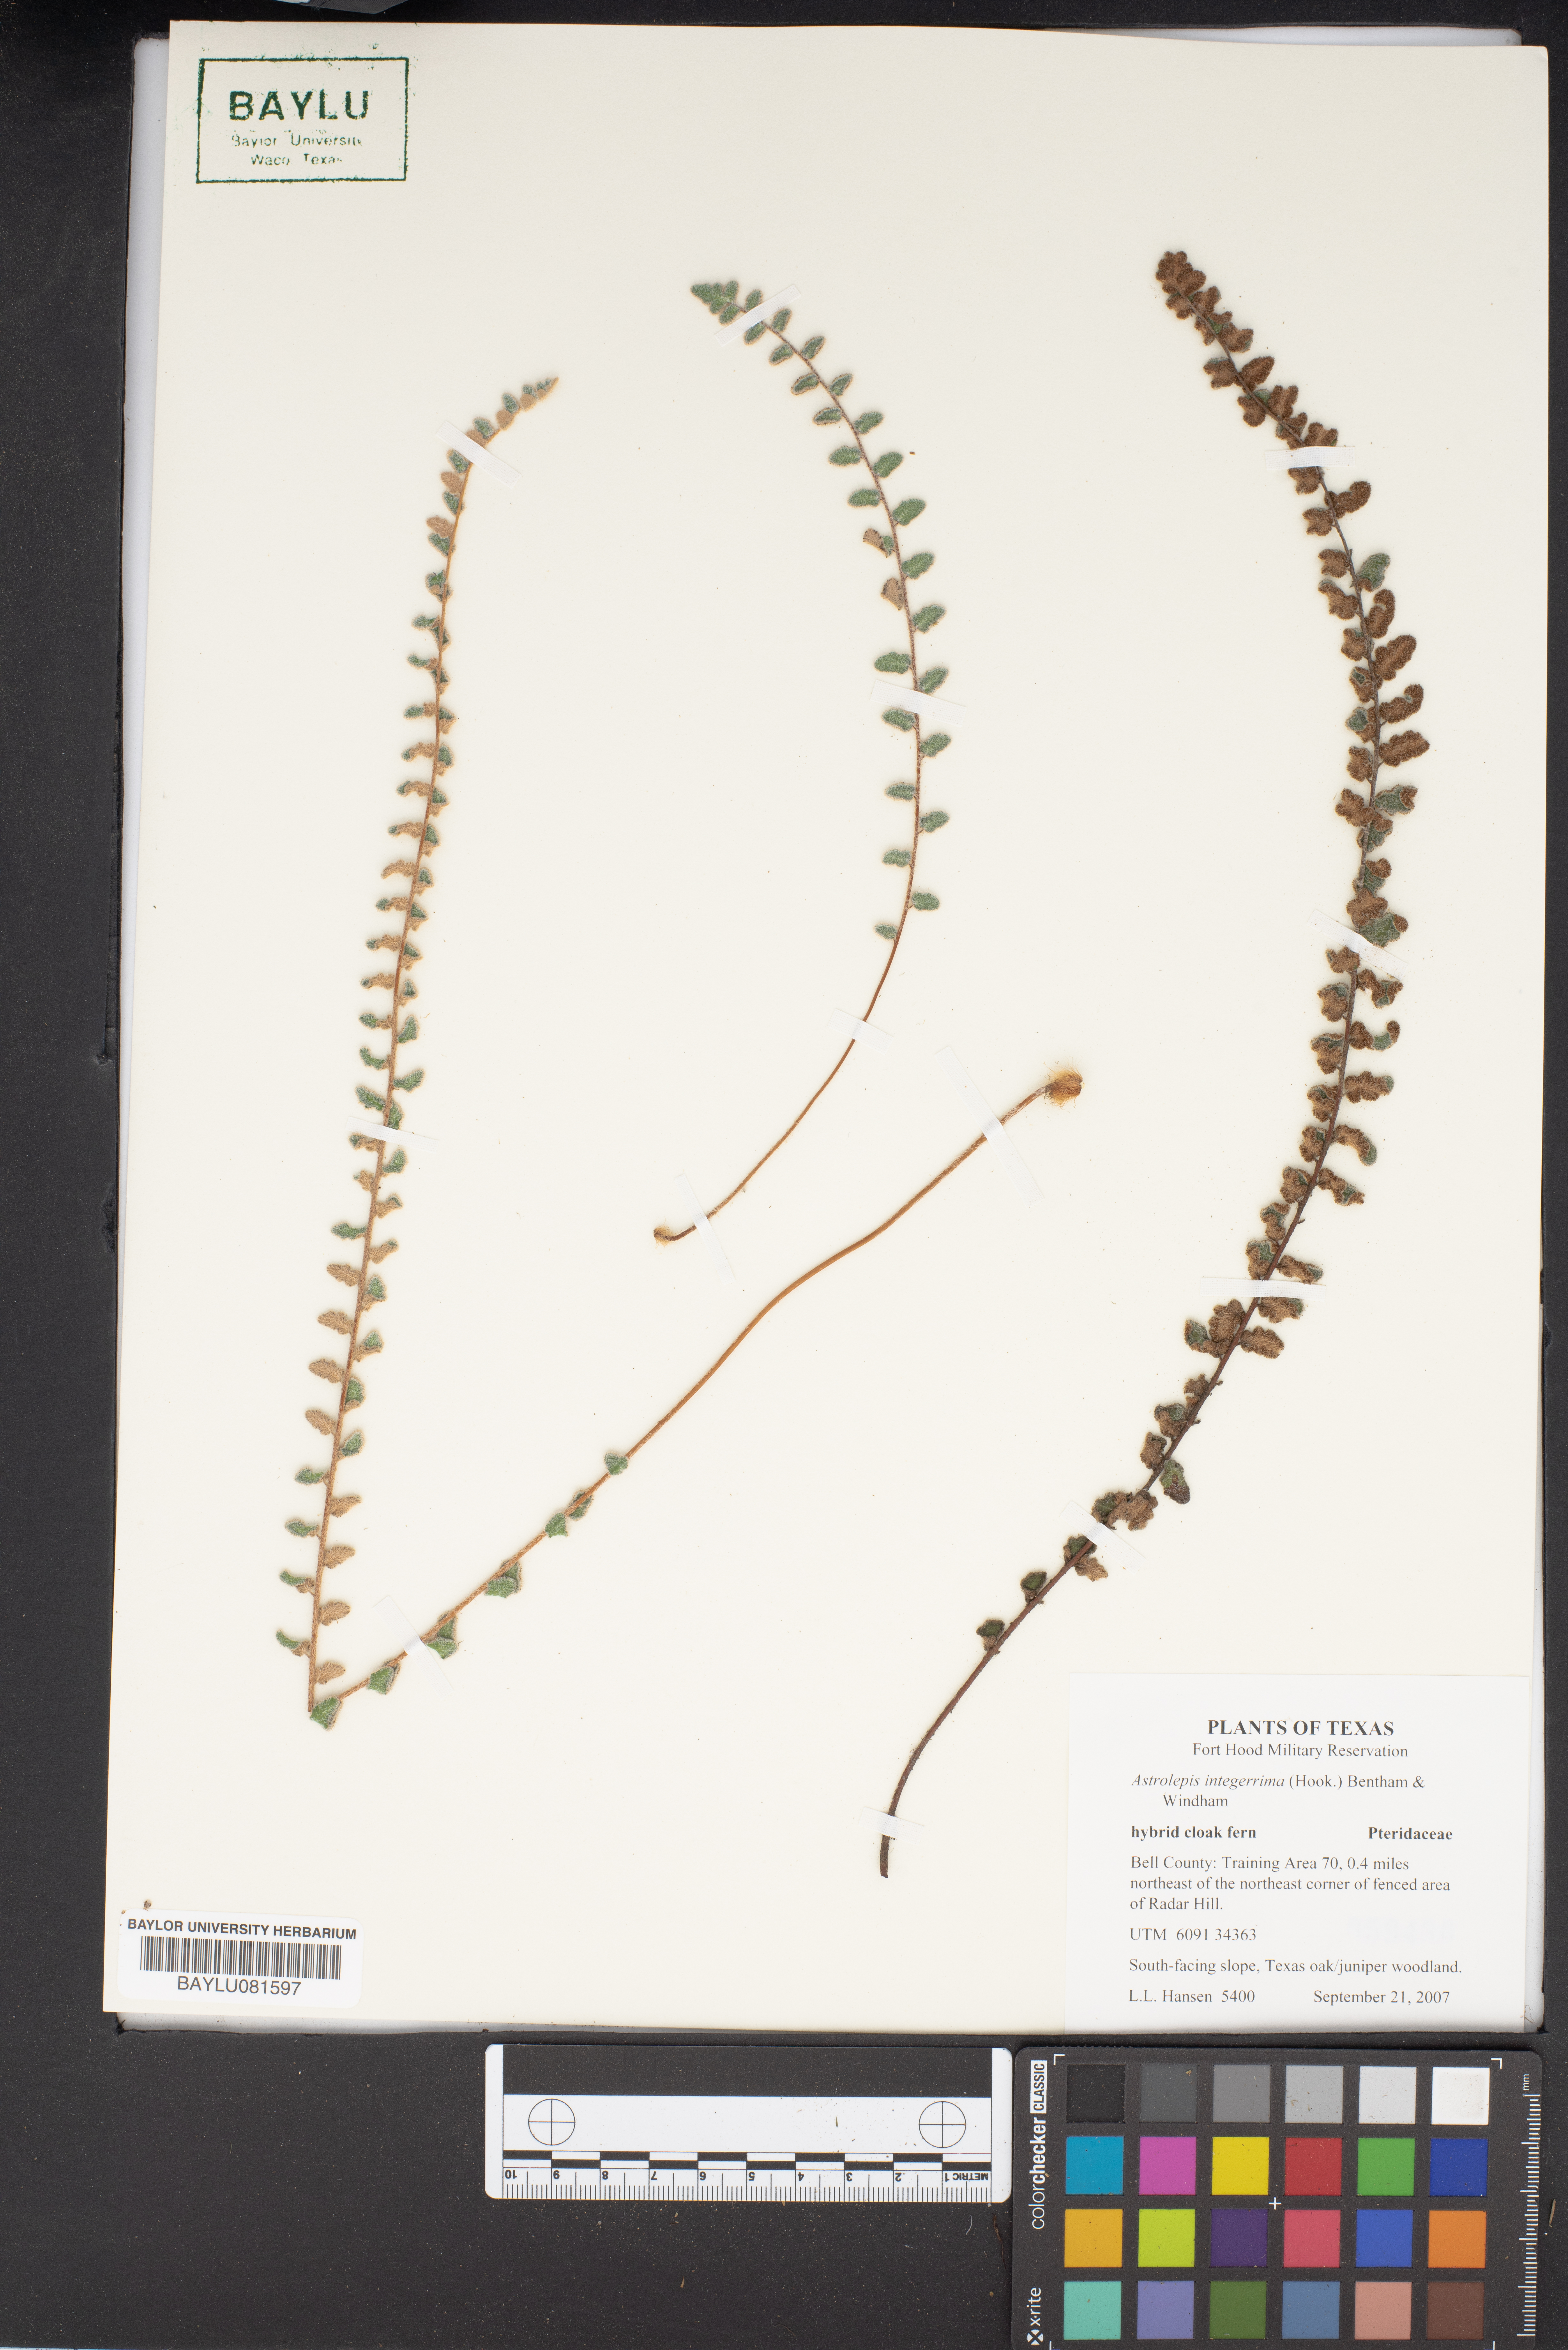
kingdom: Plantae
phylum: Tracheophyta
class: Polypodiopsida
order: Polypodiales
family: Pteridaceae
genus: Astrolepis
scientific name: Astrolepis integerrima
